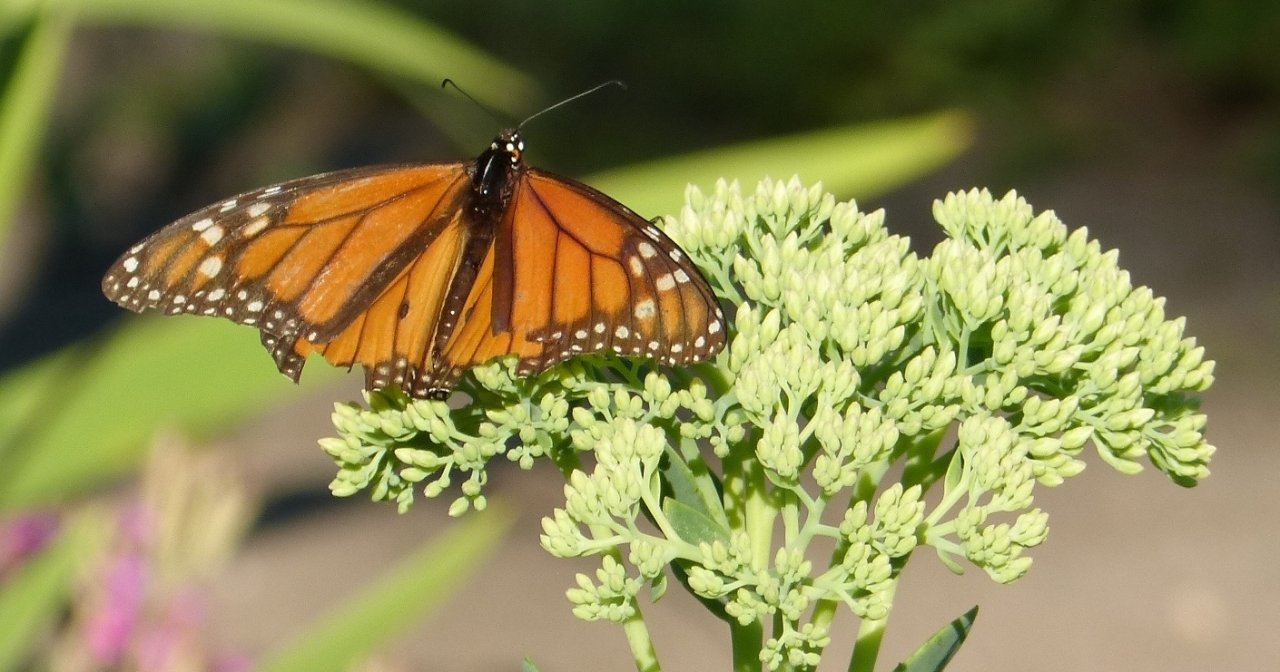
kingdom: Animalia
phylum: Arthropoda
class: Insecta
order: Lepidoptera
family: Nymphalidae
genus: Danaus
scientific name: Danaus plexippus
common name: Monarch
